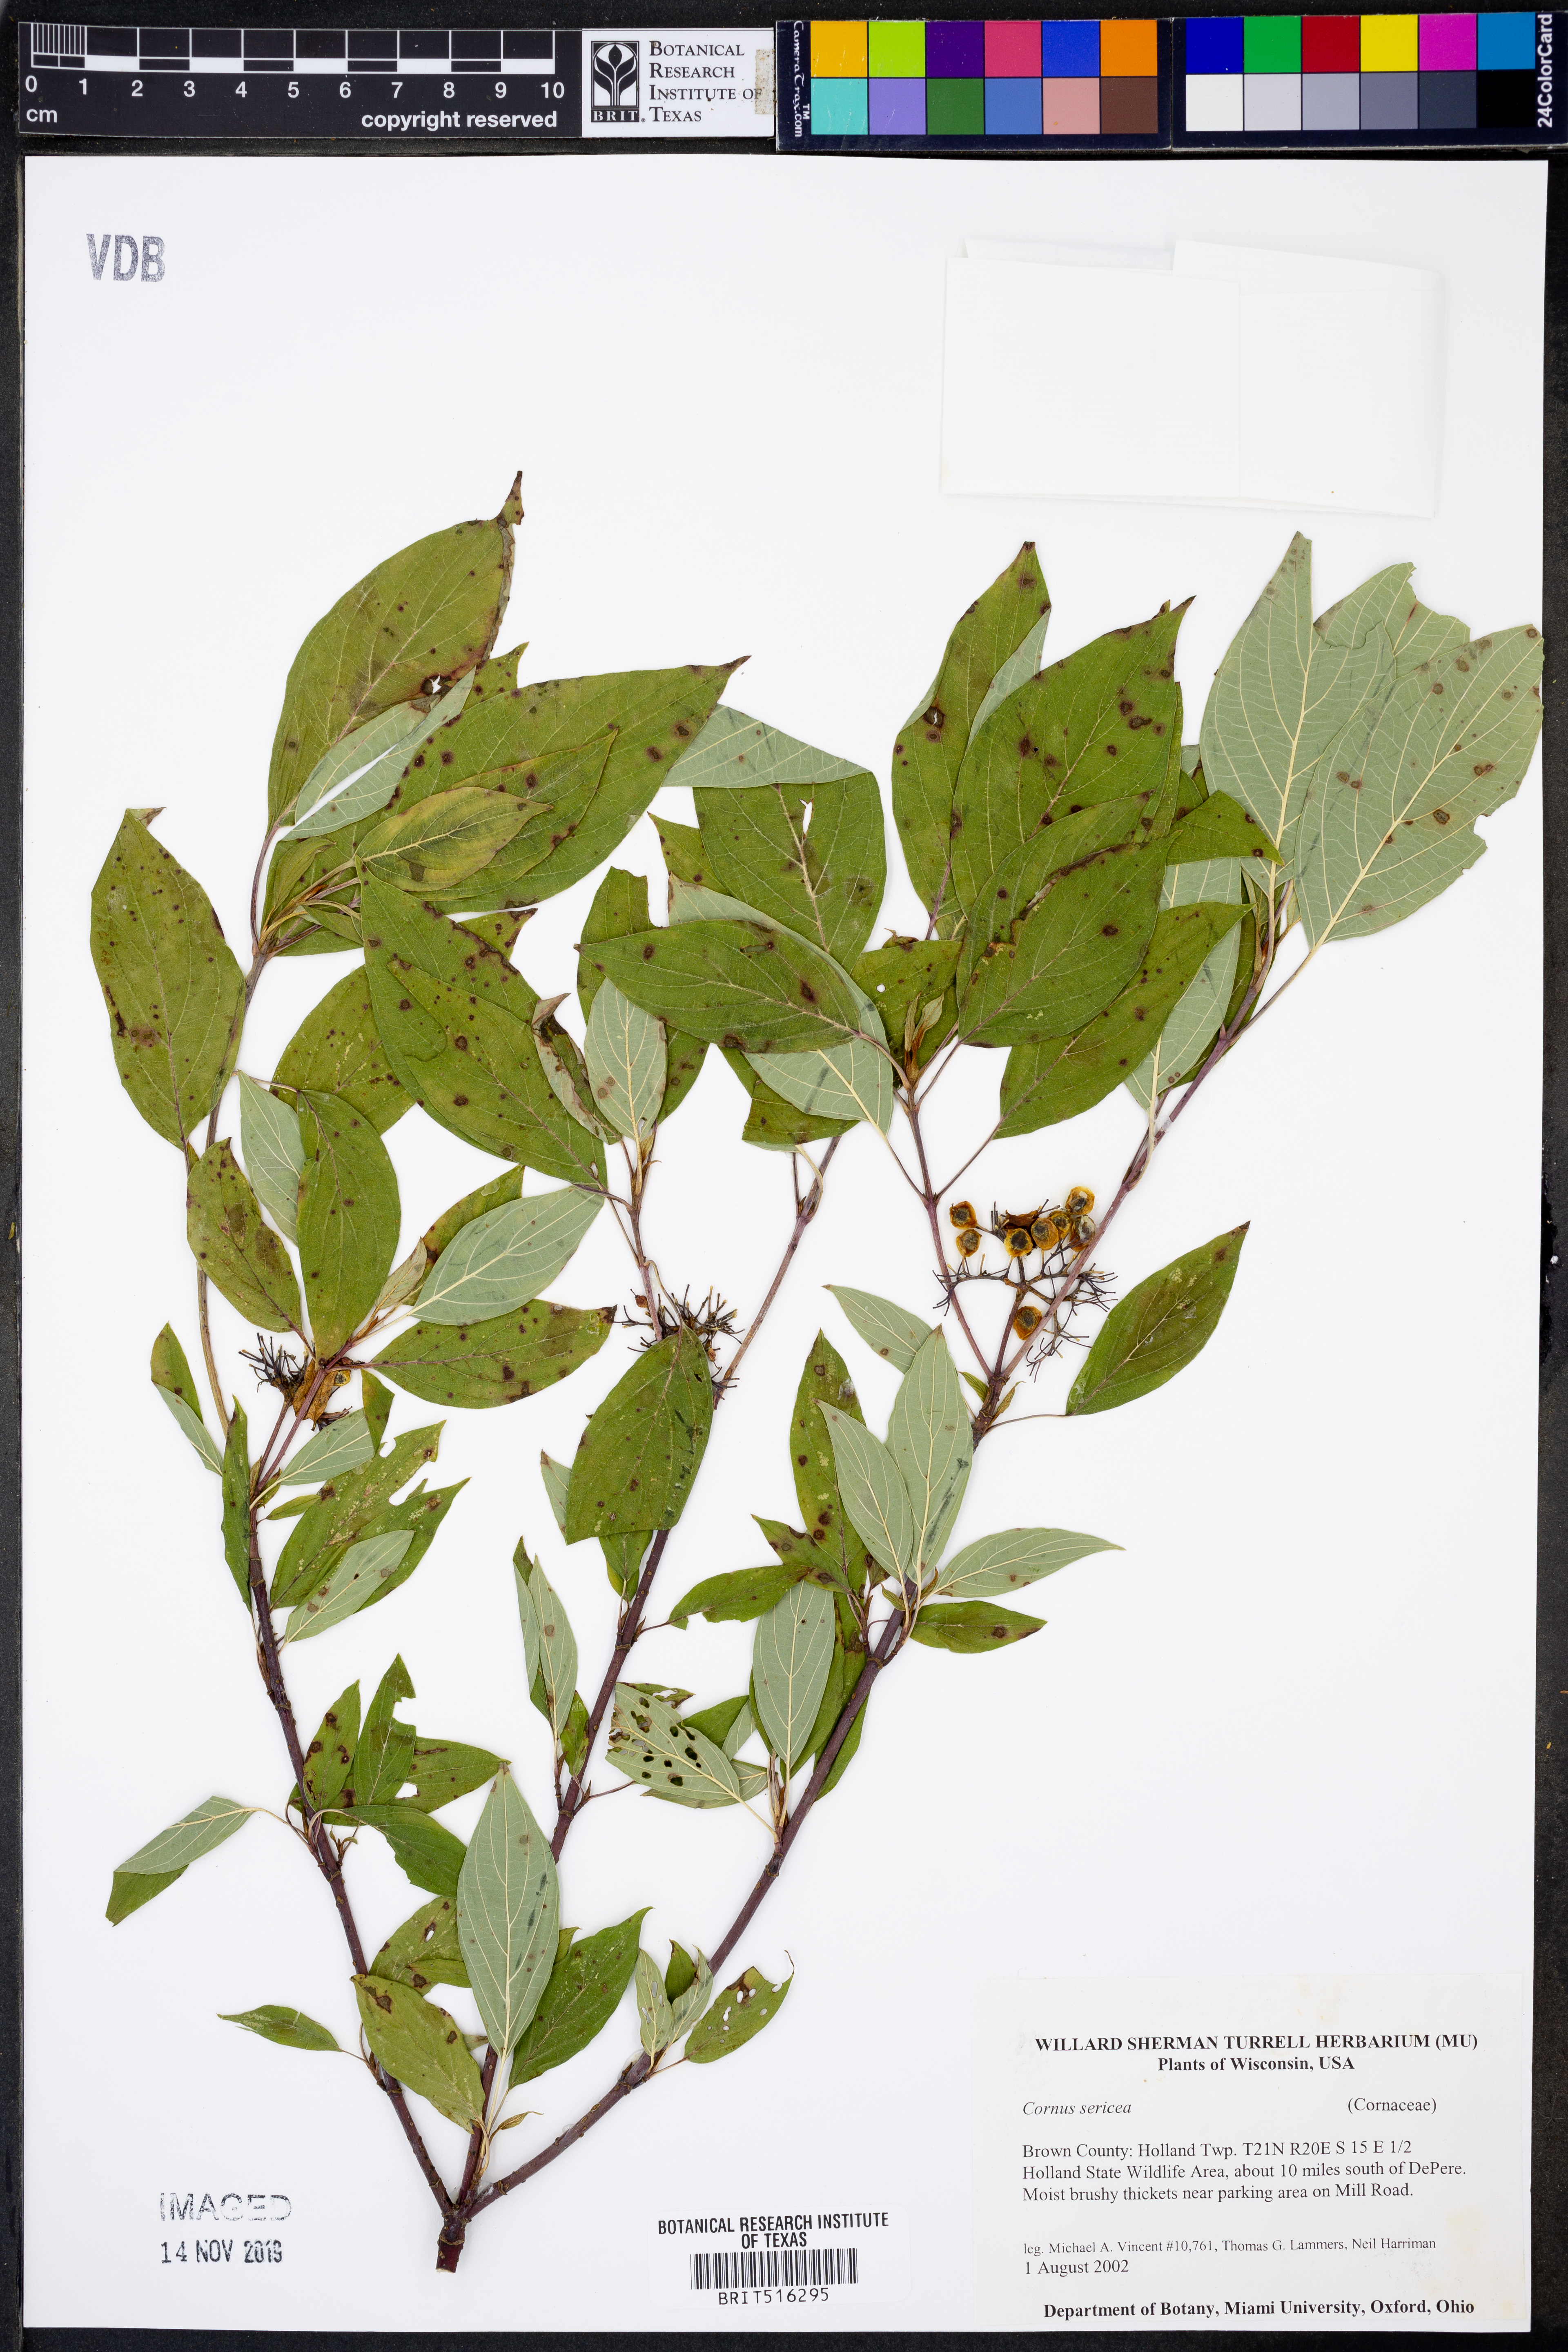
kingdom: Plantae
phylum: Tracheophyta
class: Magnoliopsida
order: Cornales
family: Cornaceae
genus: Cornus
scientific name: Cornus sericea
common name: Red-osier dogwood
